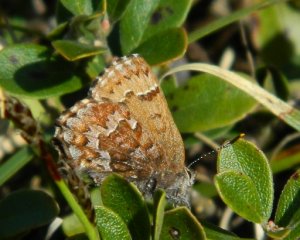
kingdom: Animalia
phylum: Arthropoda
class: Insecta
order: Lepidoptera
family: Lycaenidae
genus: Incisalia
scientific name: Incisalia niphon
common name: Eastern Pine Elfin
